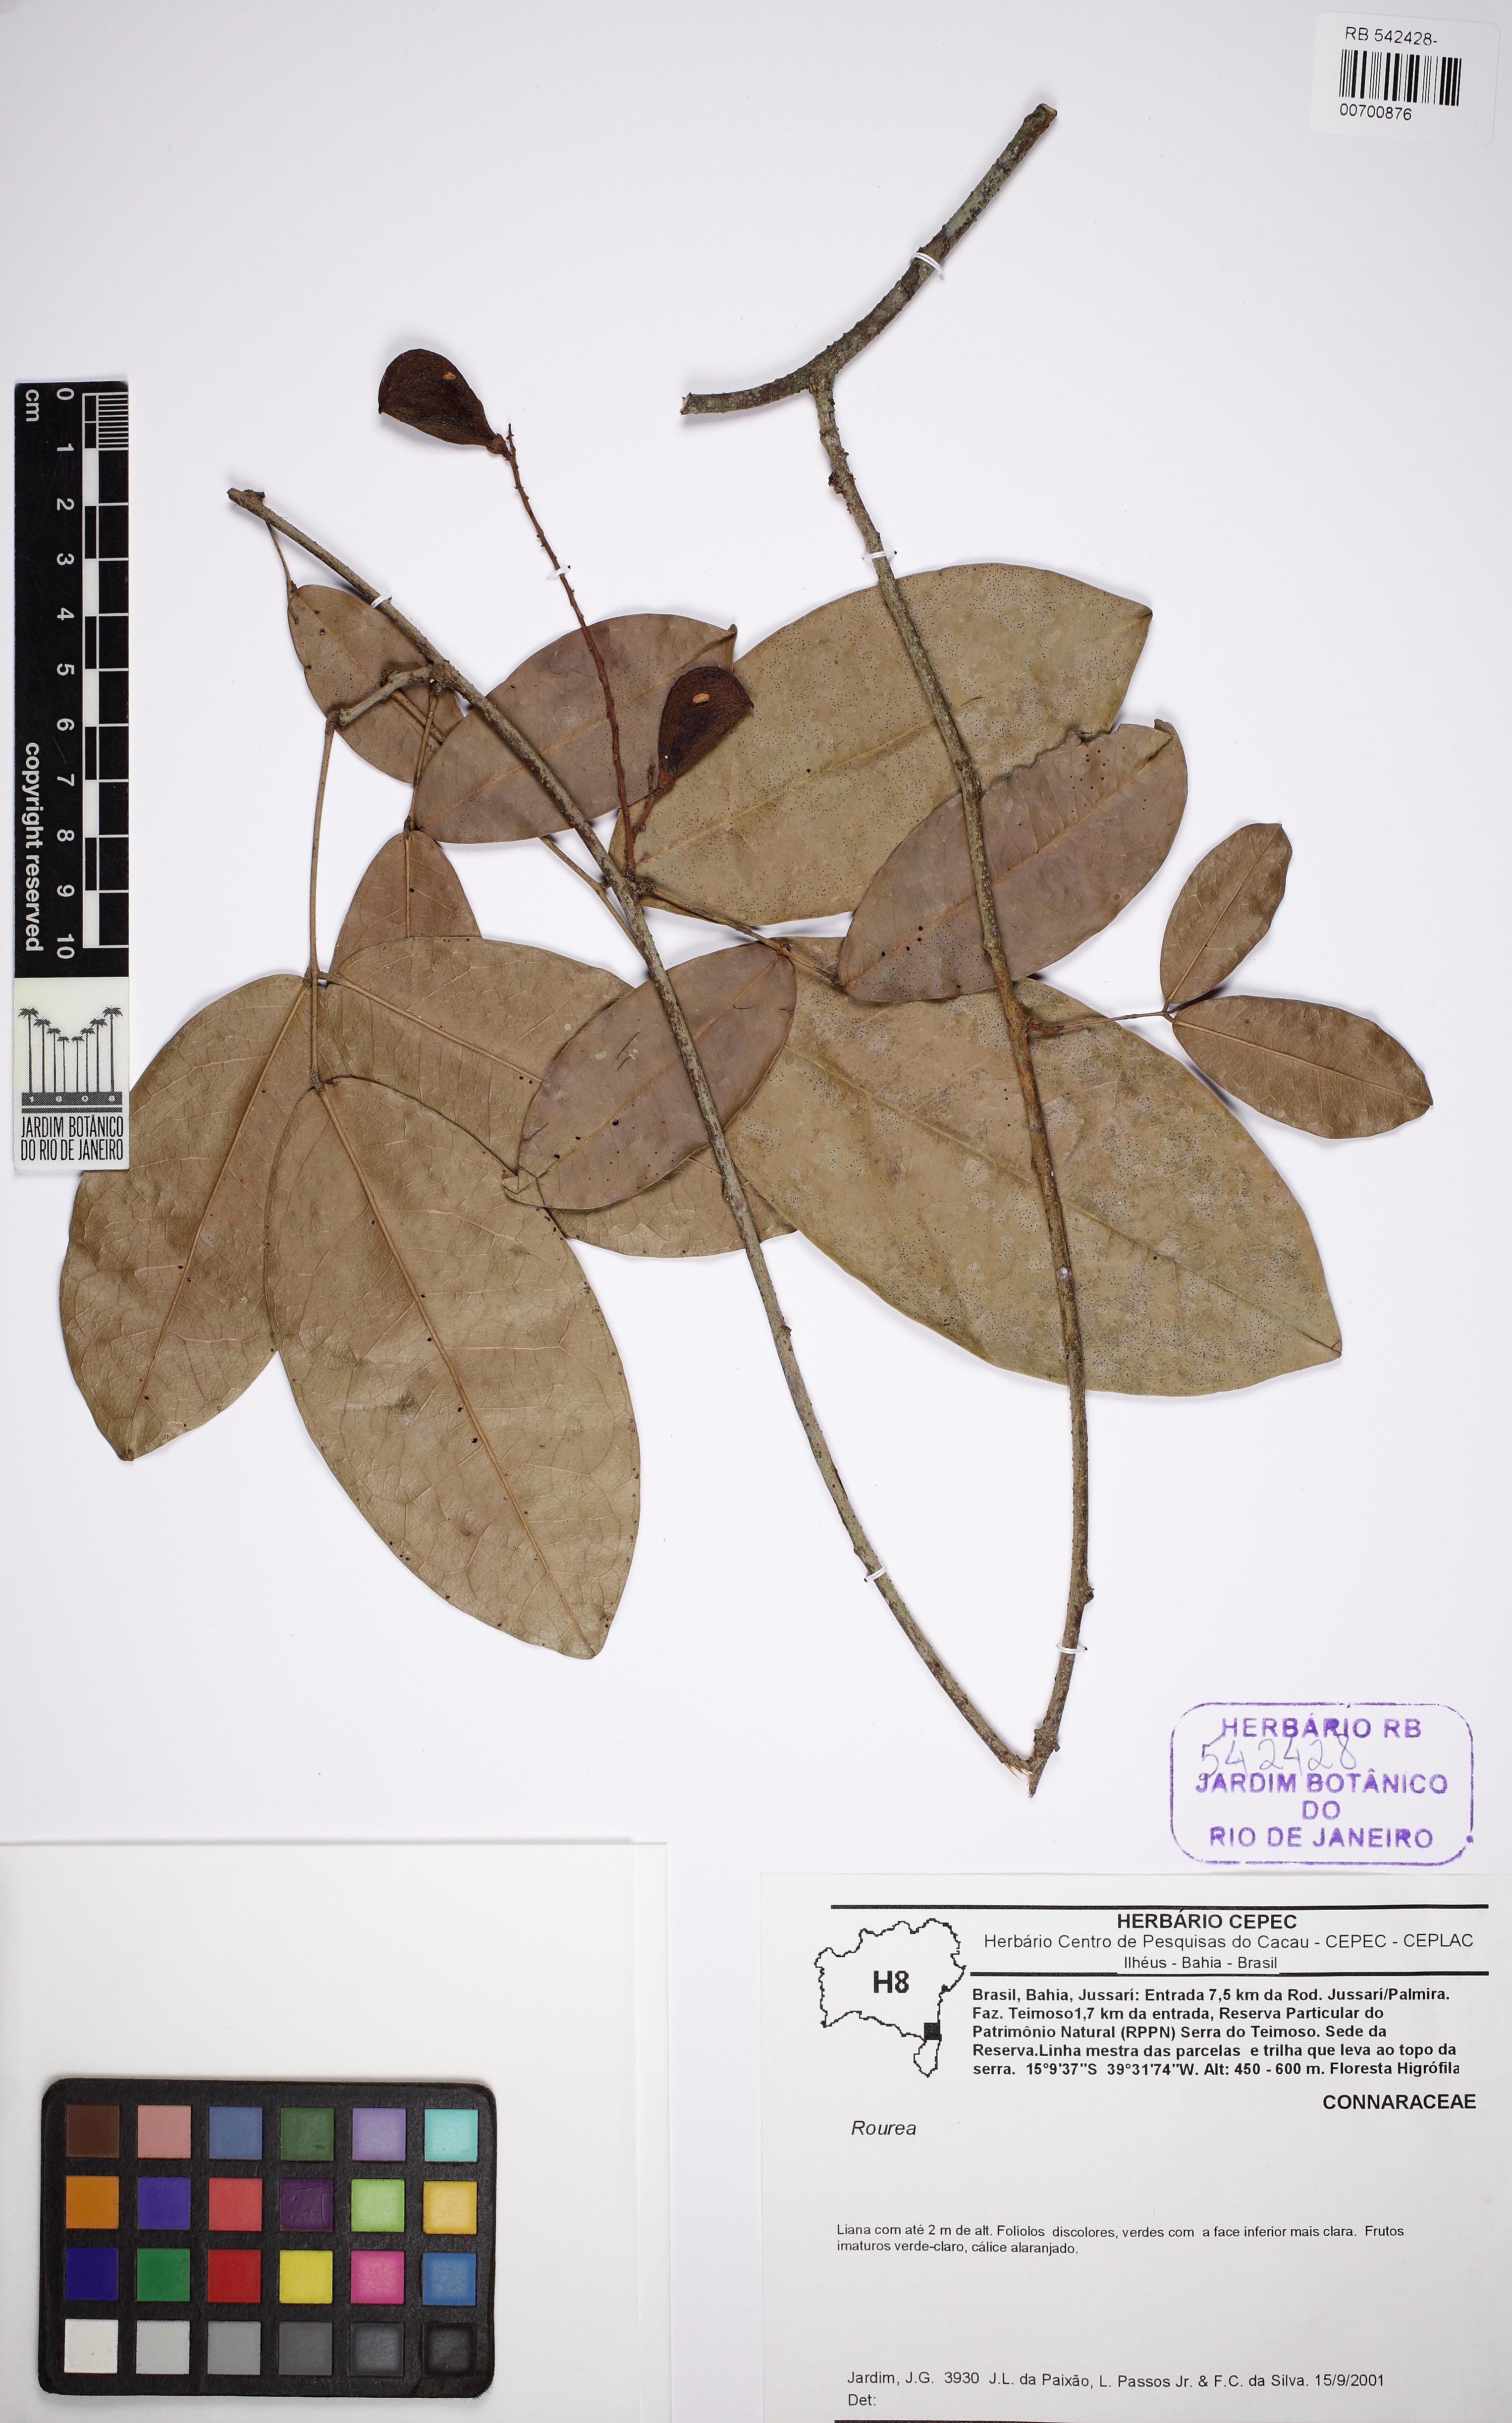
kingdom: Plantae
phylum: Tracheophyta
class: Magnoliopsida
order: Oxalidales
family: Connaraceae
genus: Connarus
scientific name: Connarus blanchetii
